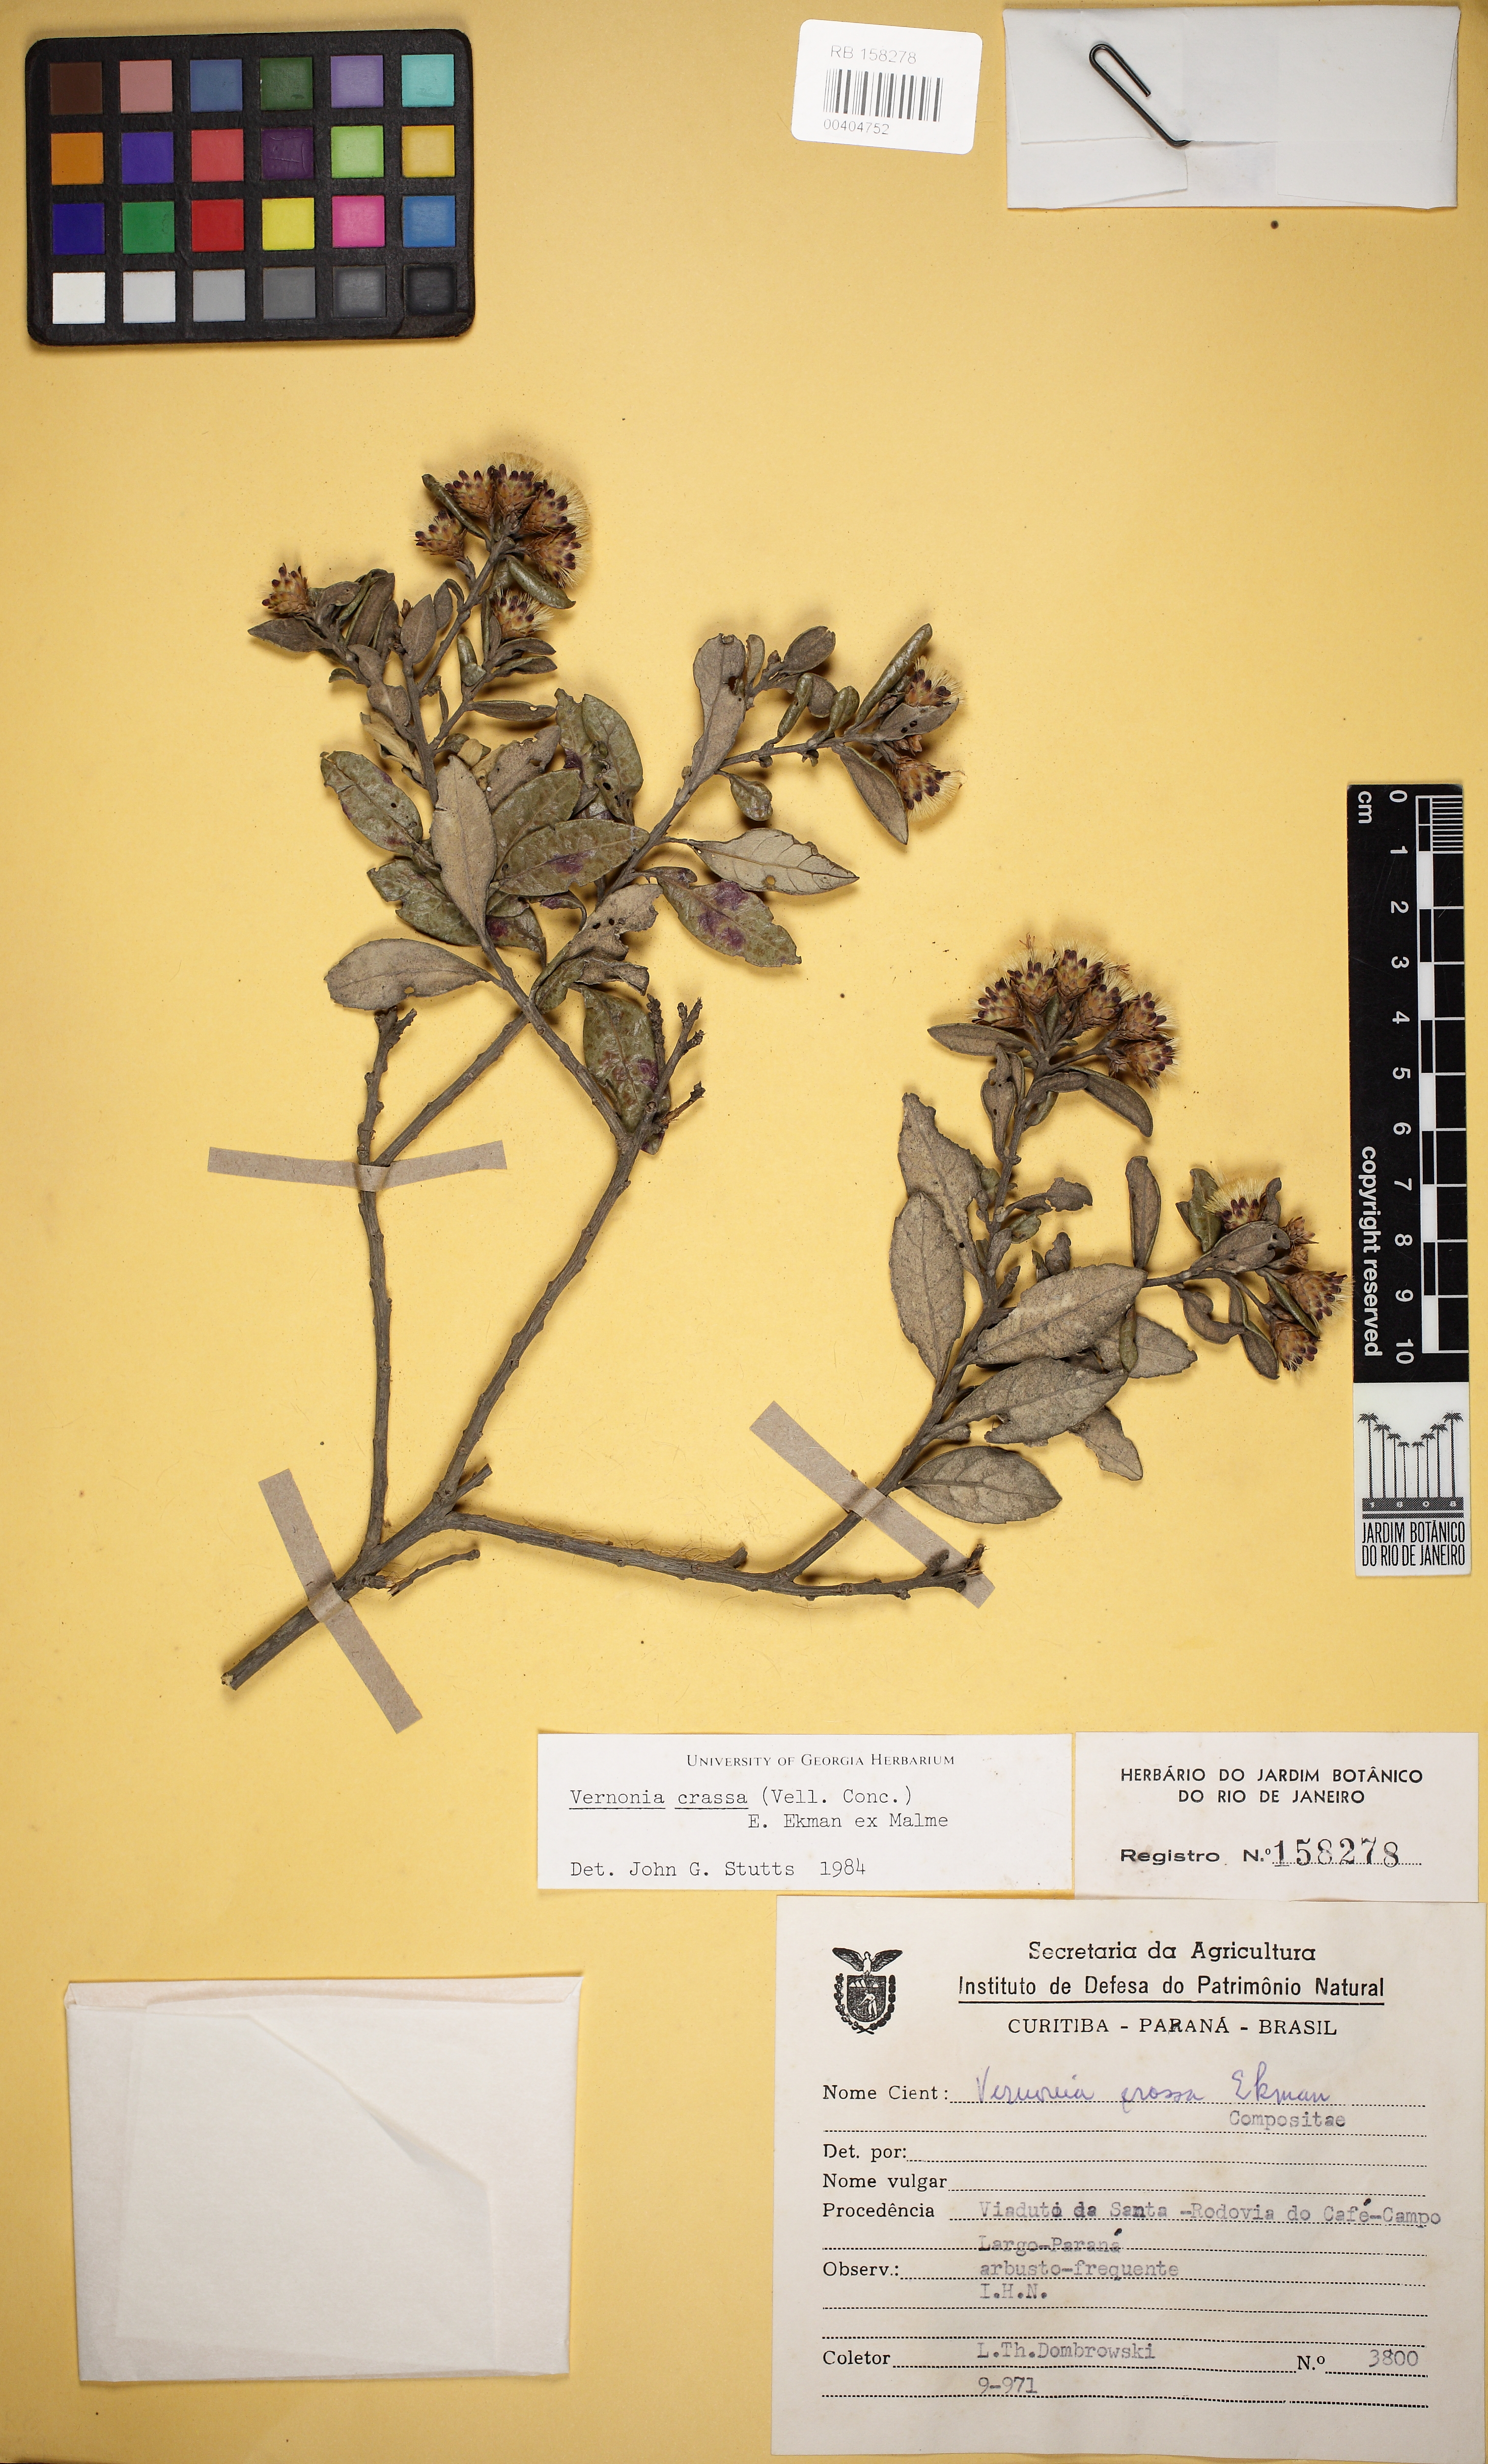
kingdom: Plantae
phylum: Tracheophyta
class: Magnoliopsida
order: Asterales
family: Asteraceae
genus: Vernonanthura
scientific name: Vernonanthura crassa
